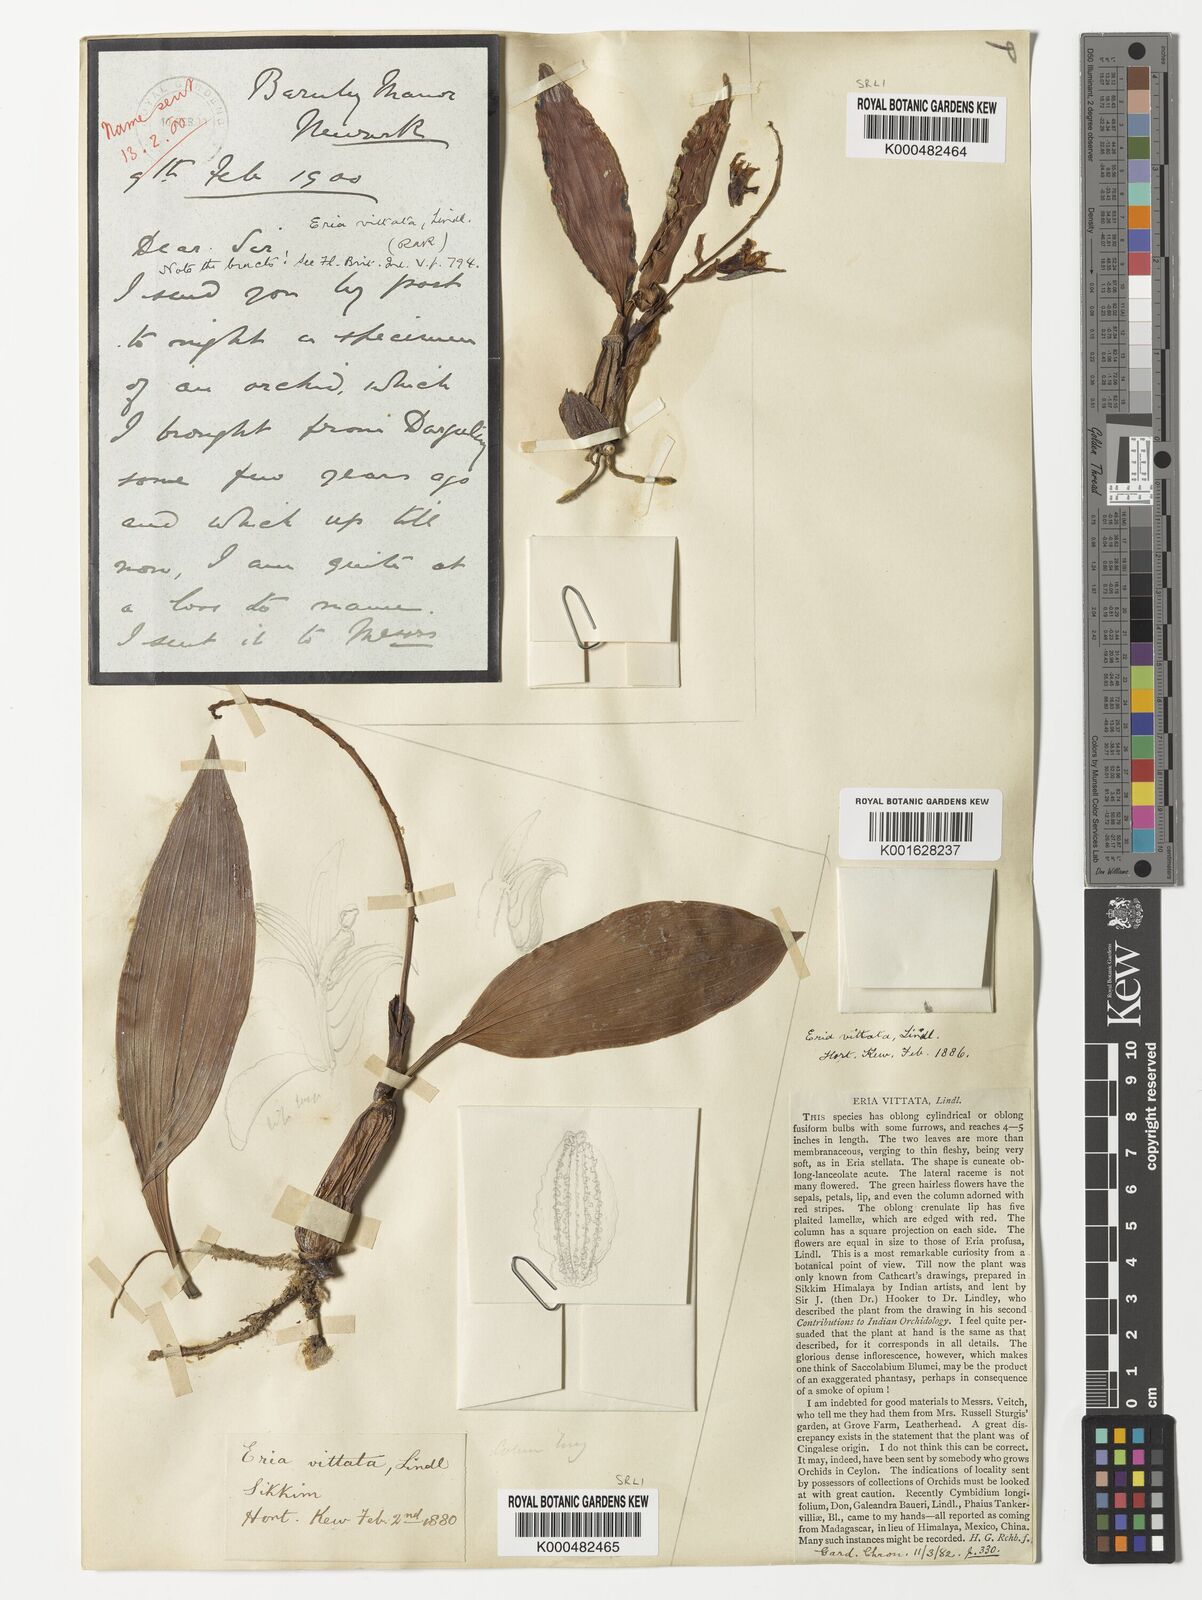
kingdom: Plantae
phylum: Tracheophyta
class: Liliopsida
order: Asparagales
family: Orchidaceae
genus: Eria
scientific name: Eria vittata
